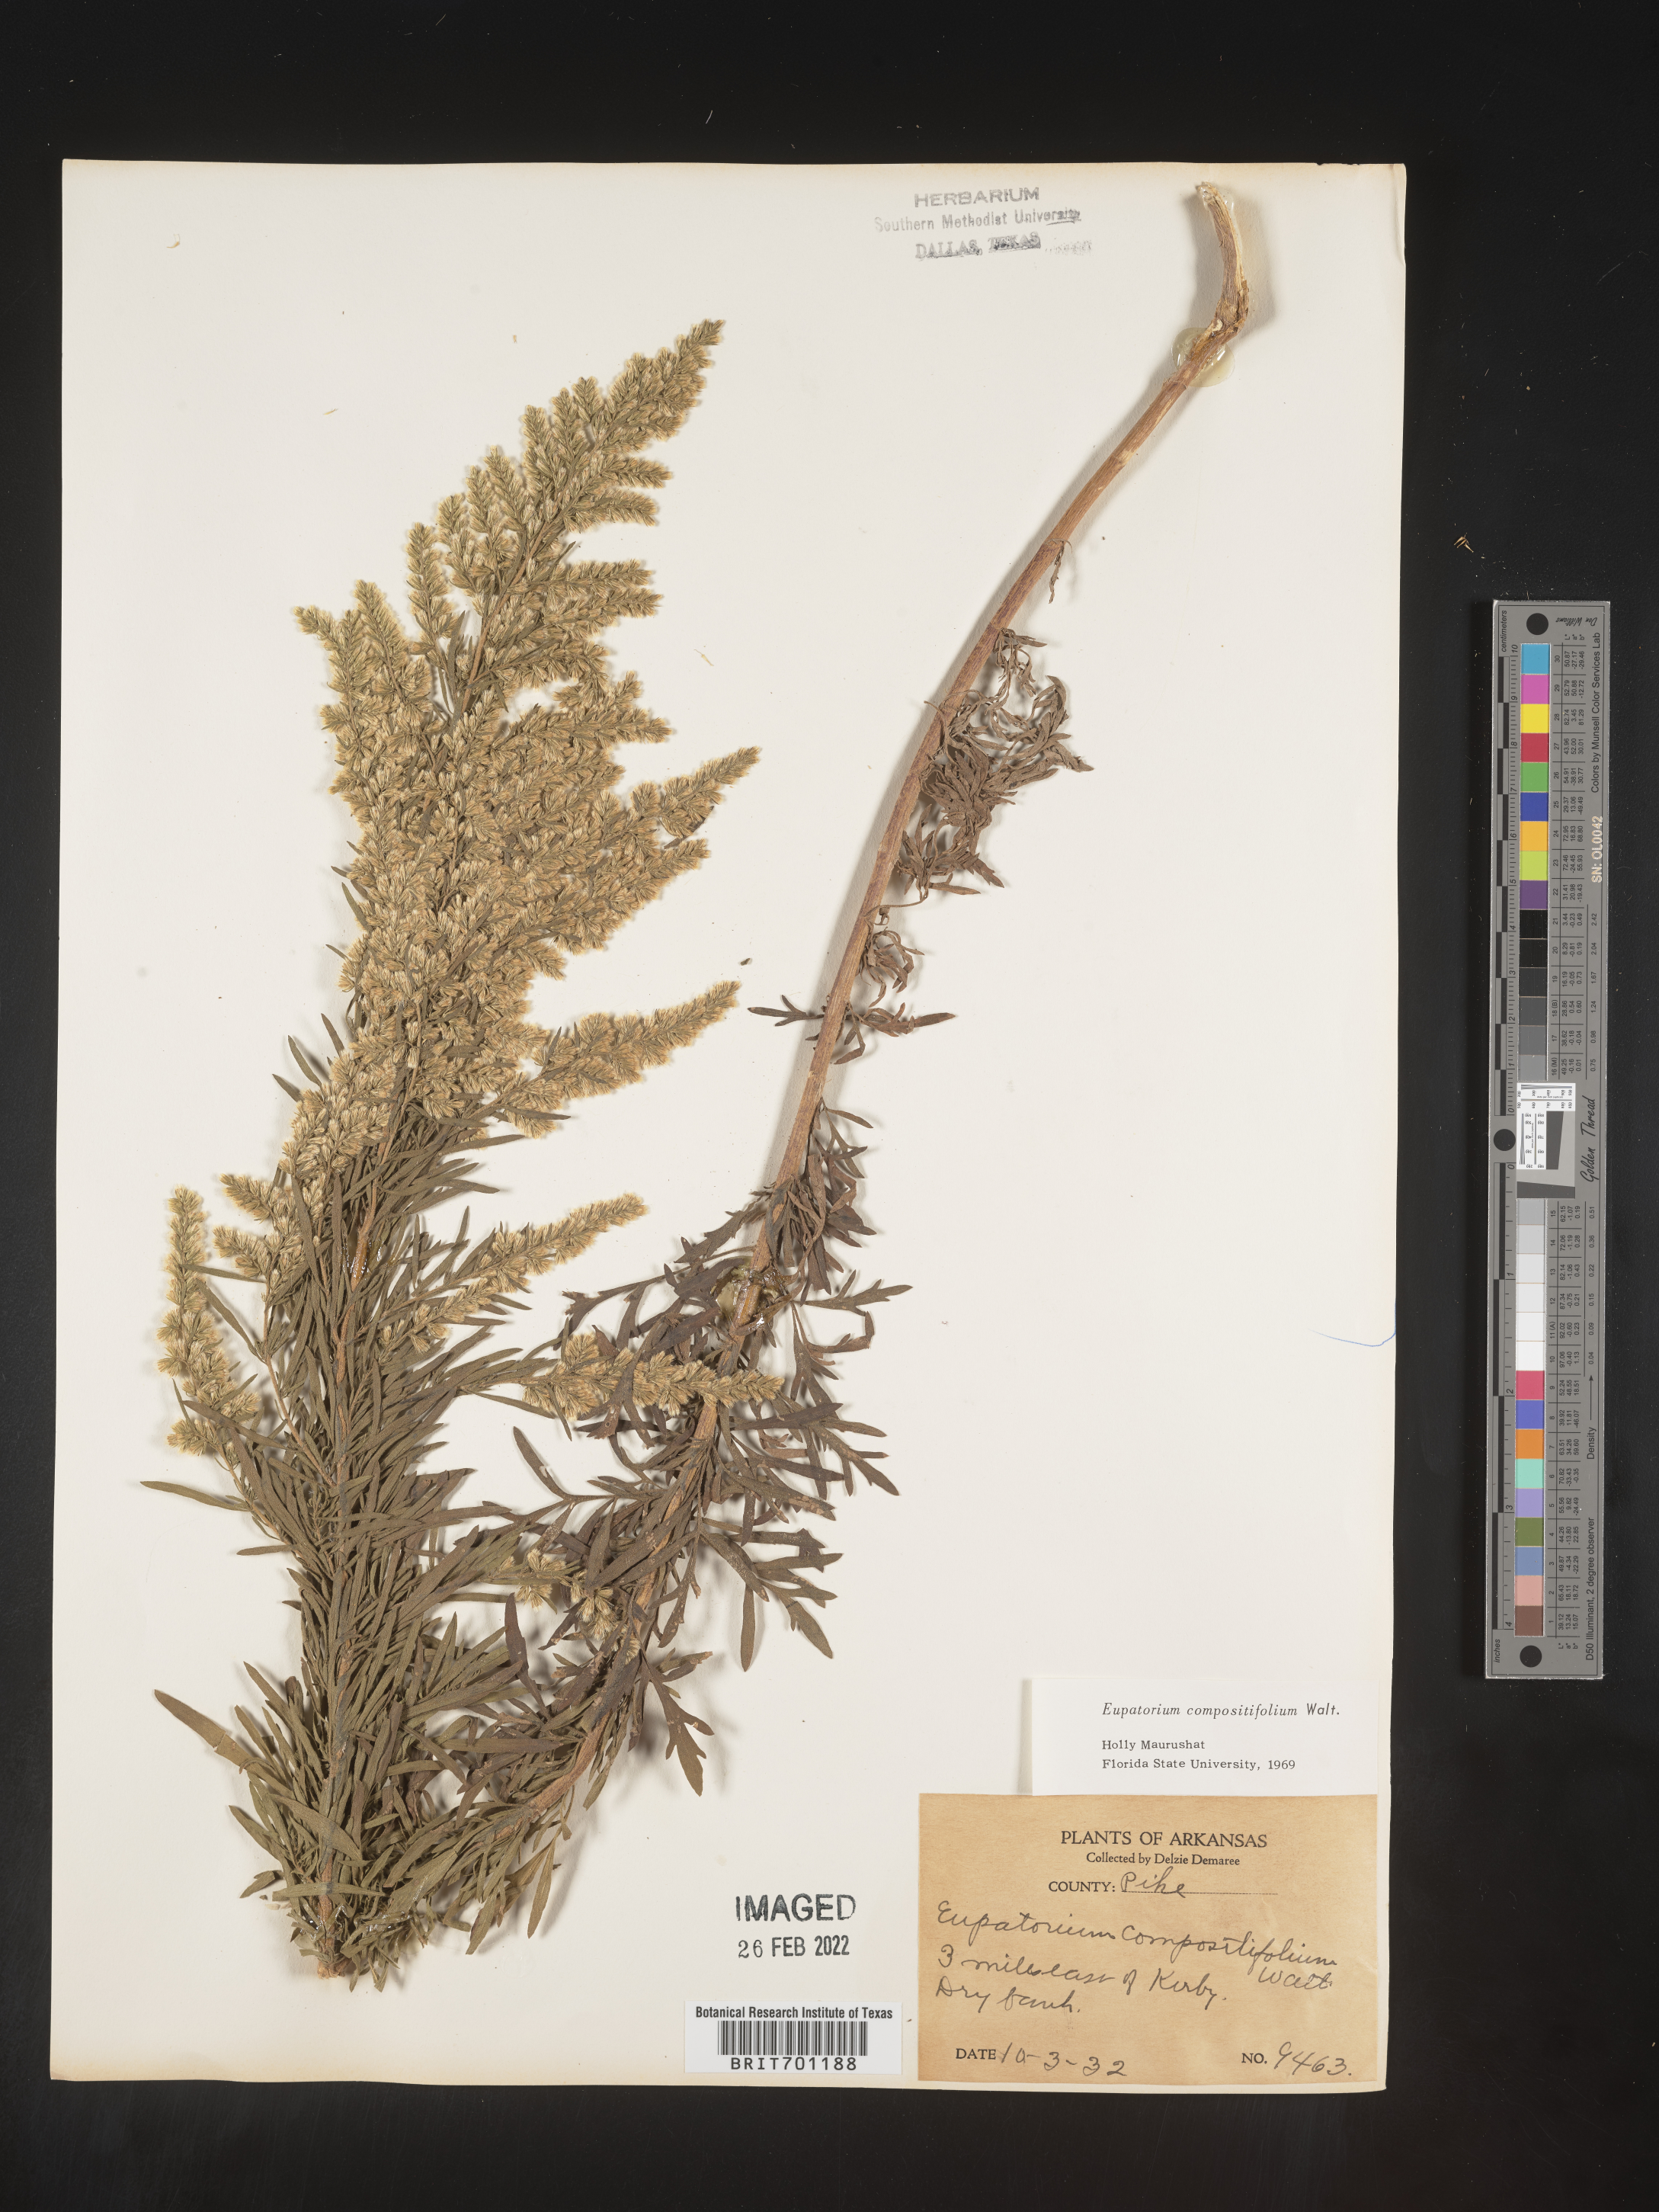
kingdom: Plantae
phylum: Tracheophyta
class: Magnoliopsida
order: Asterales
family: Asteraceae
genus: Eupatorium
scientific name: Eupatorium compositifolium
